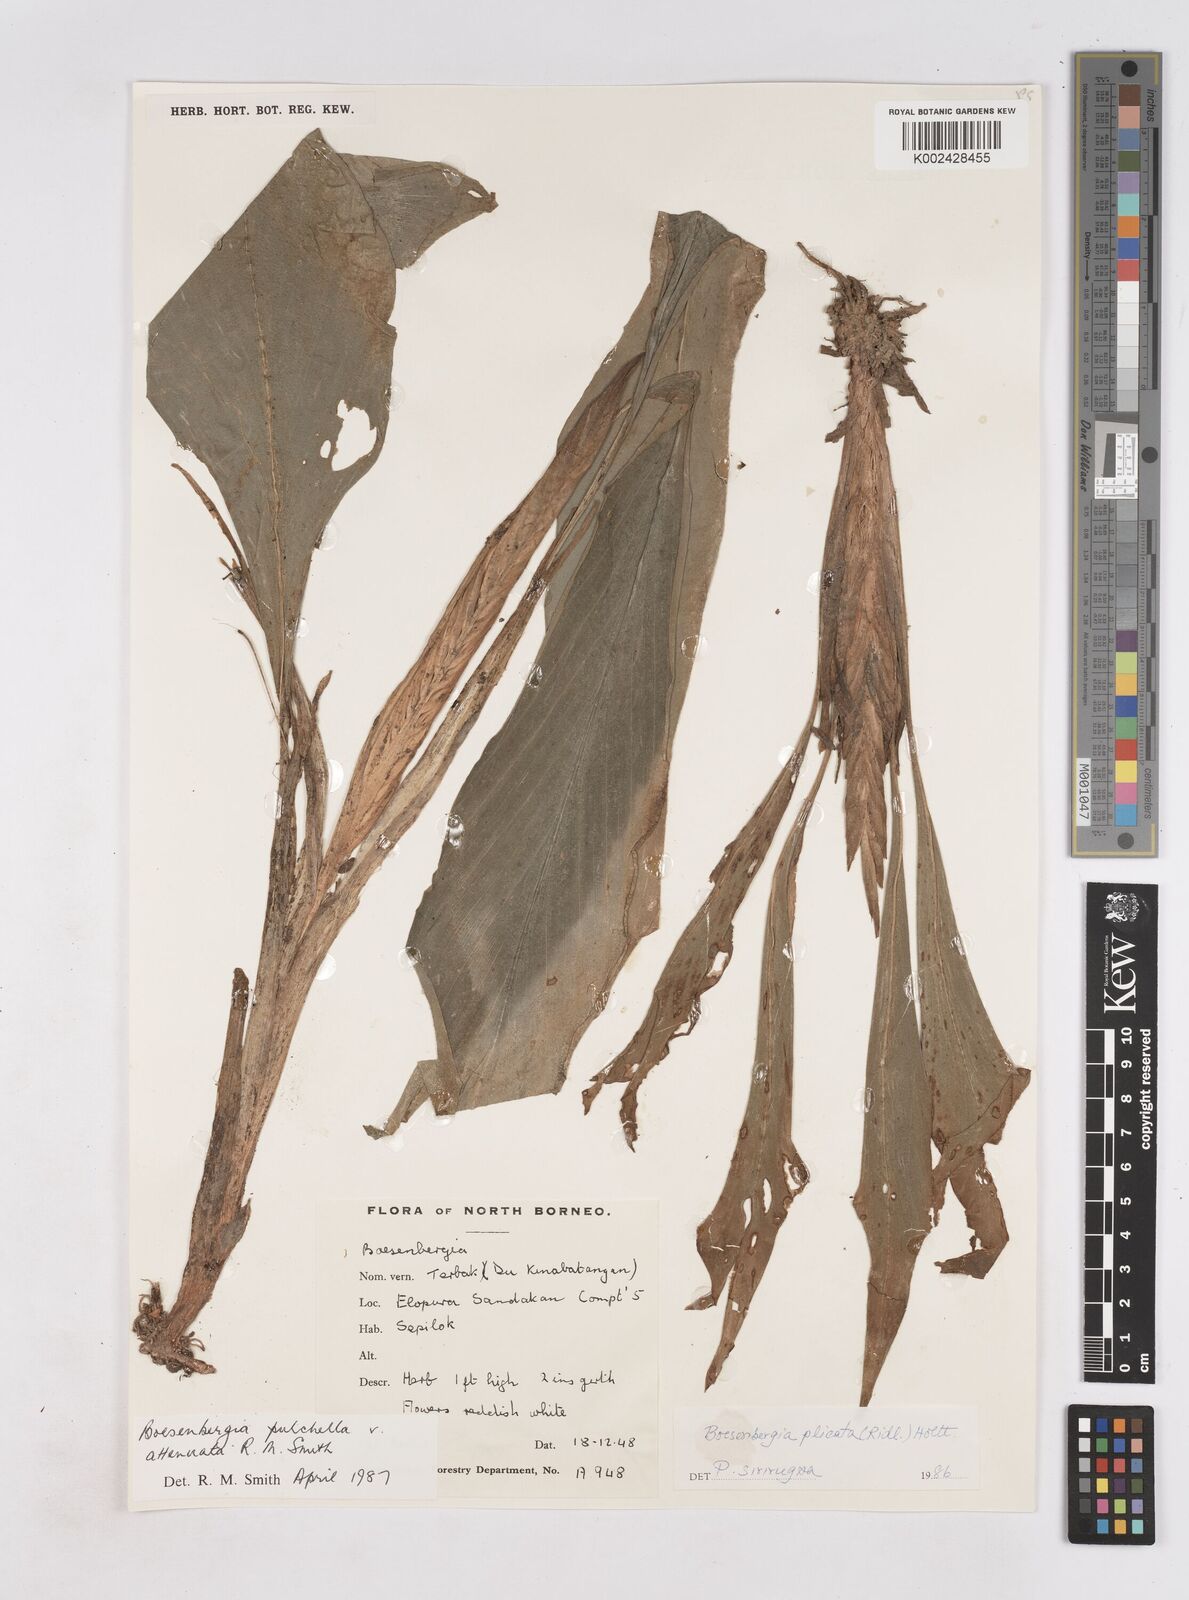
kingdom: Plantae
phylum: Tracheophyta
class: Liliopsida
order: Zingiberales
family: Zingiberaceae
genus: Boesenbergia
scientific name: Boesenbergia pulchella
